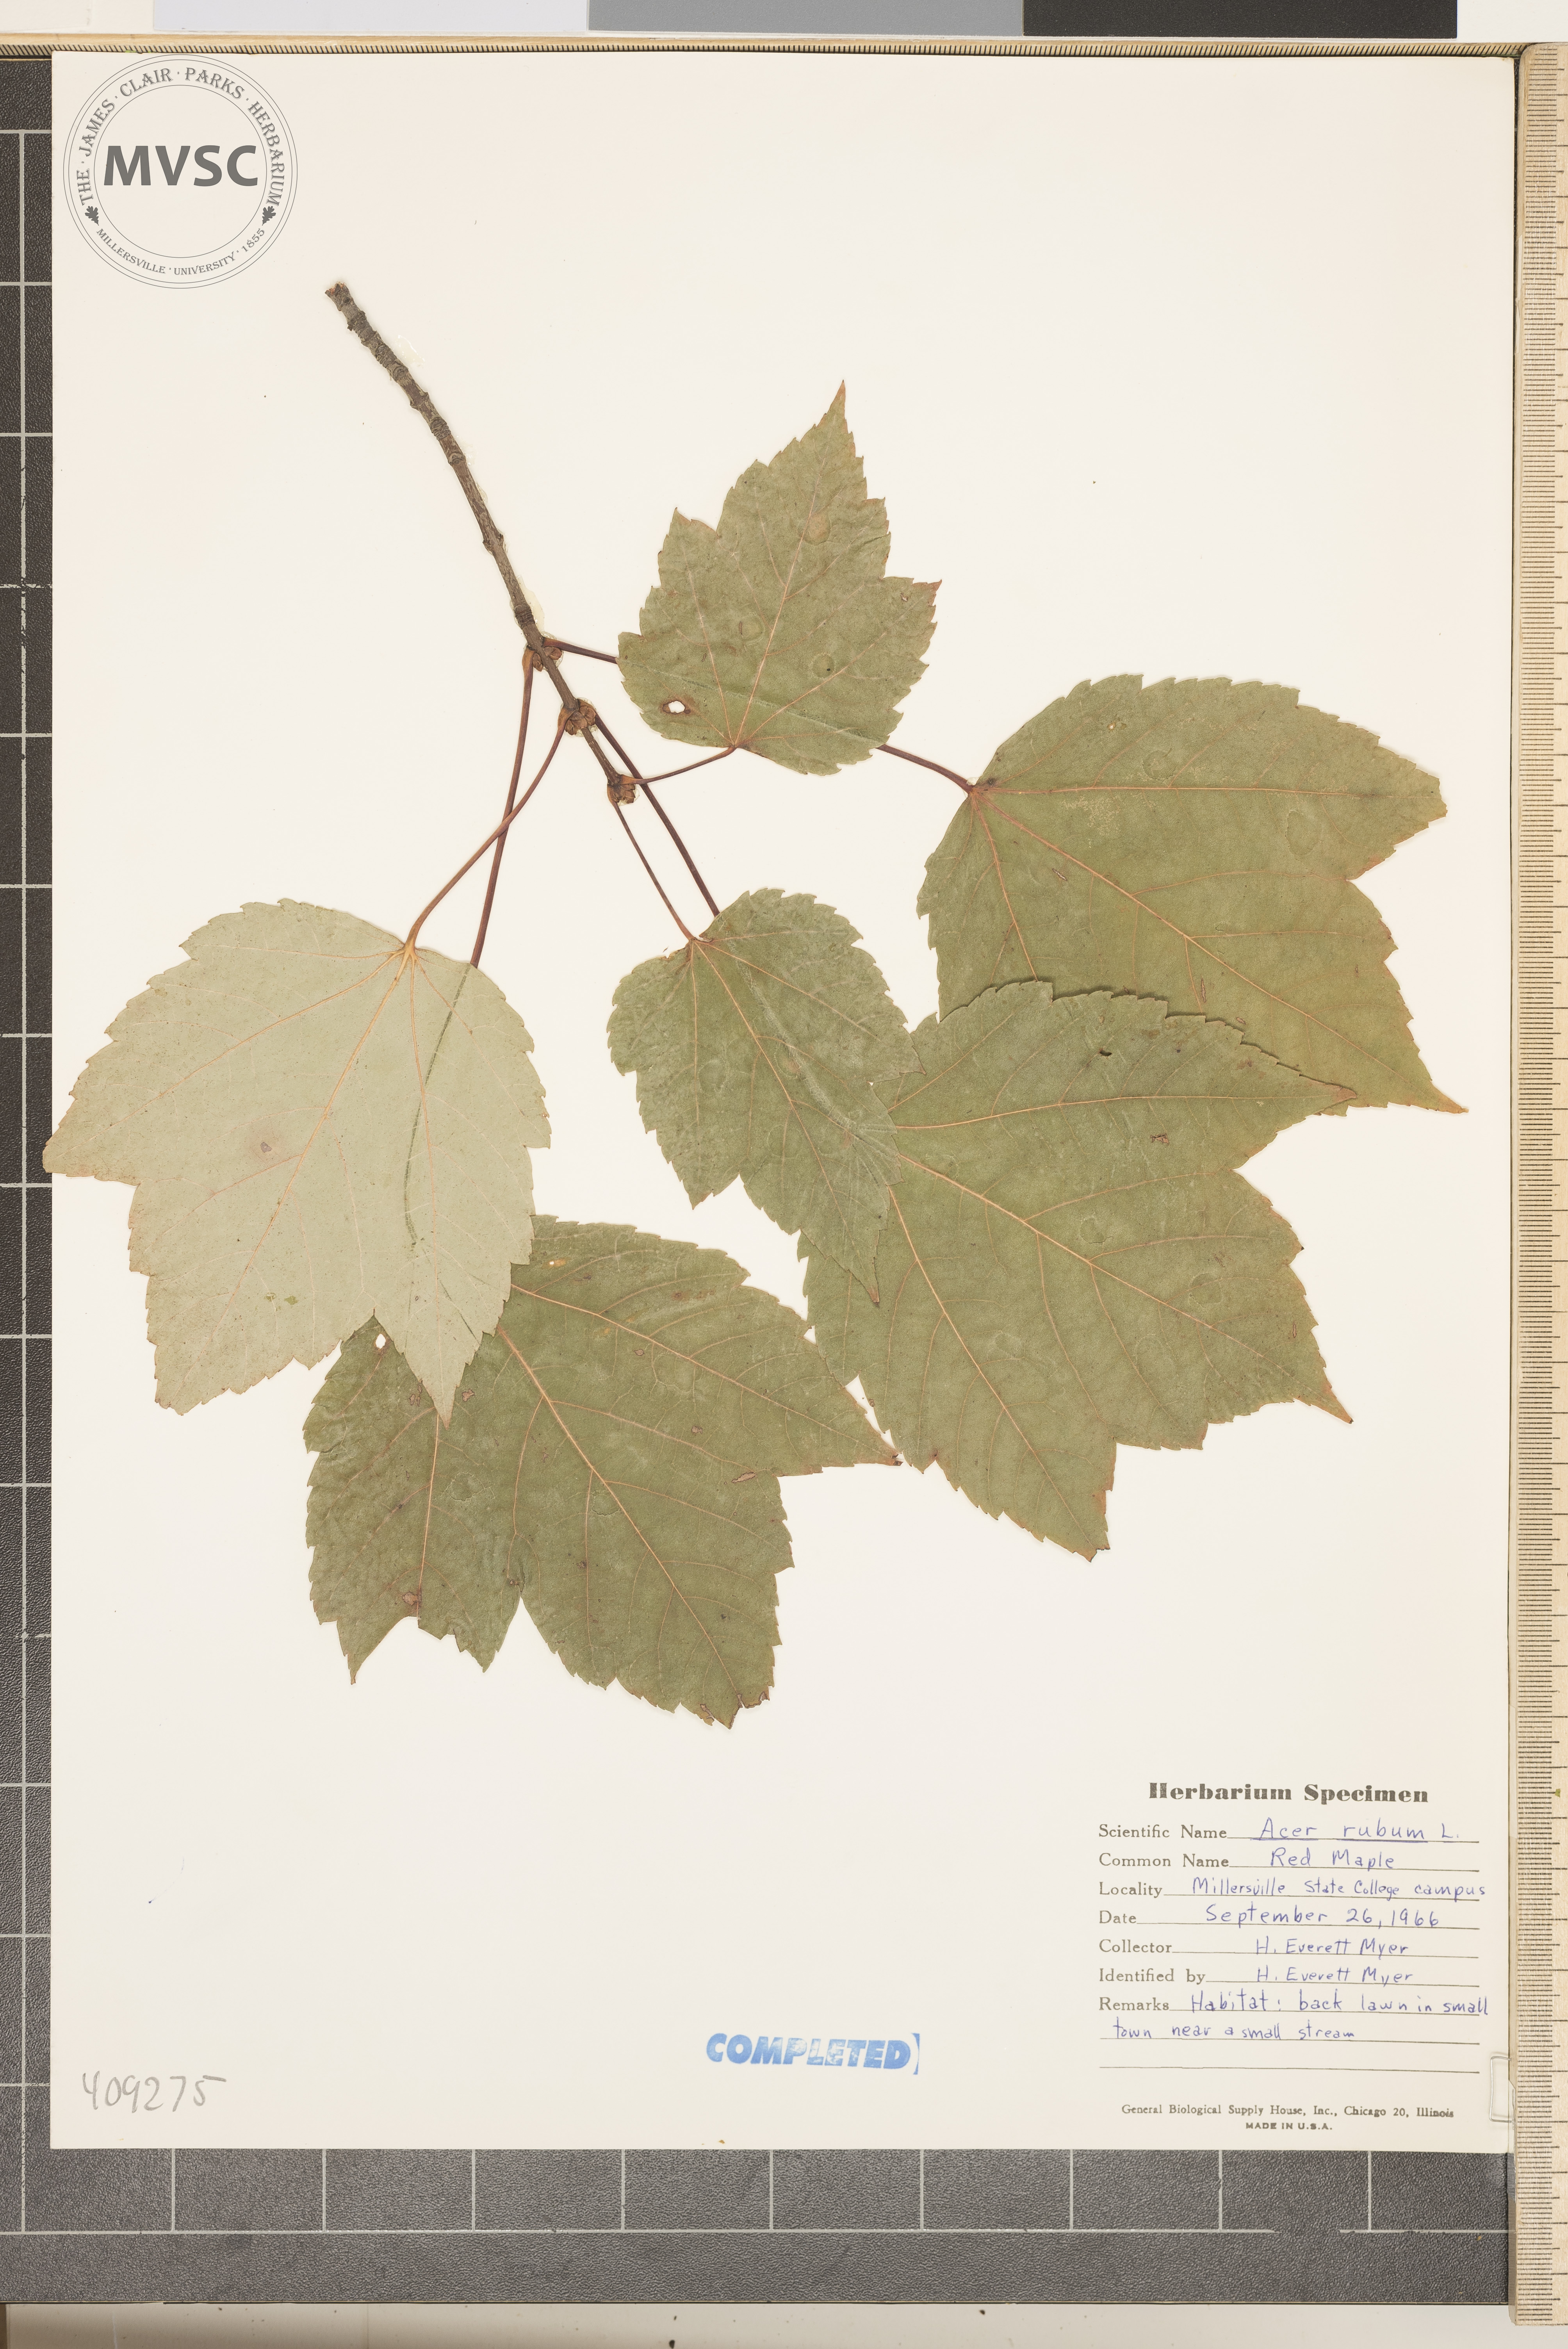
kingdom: Plantae
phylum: Tracheophyta
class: Magnoliopsida
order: Sapindales
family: Sapindaceae
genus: Acer
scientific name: Acer rubrum
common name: Red maple
